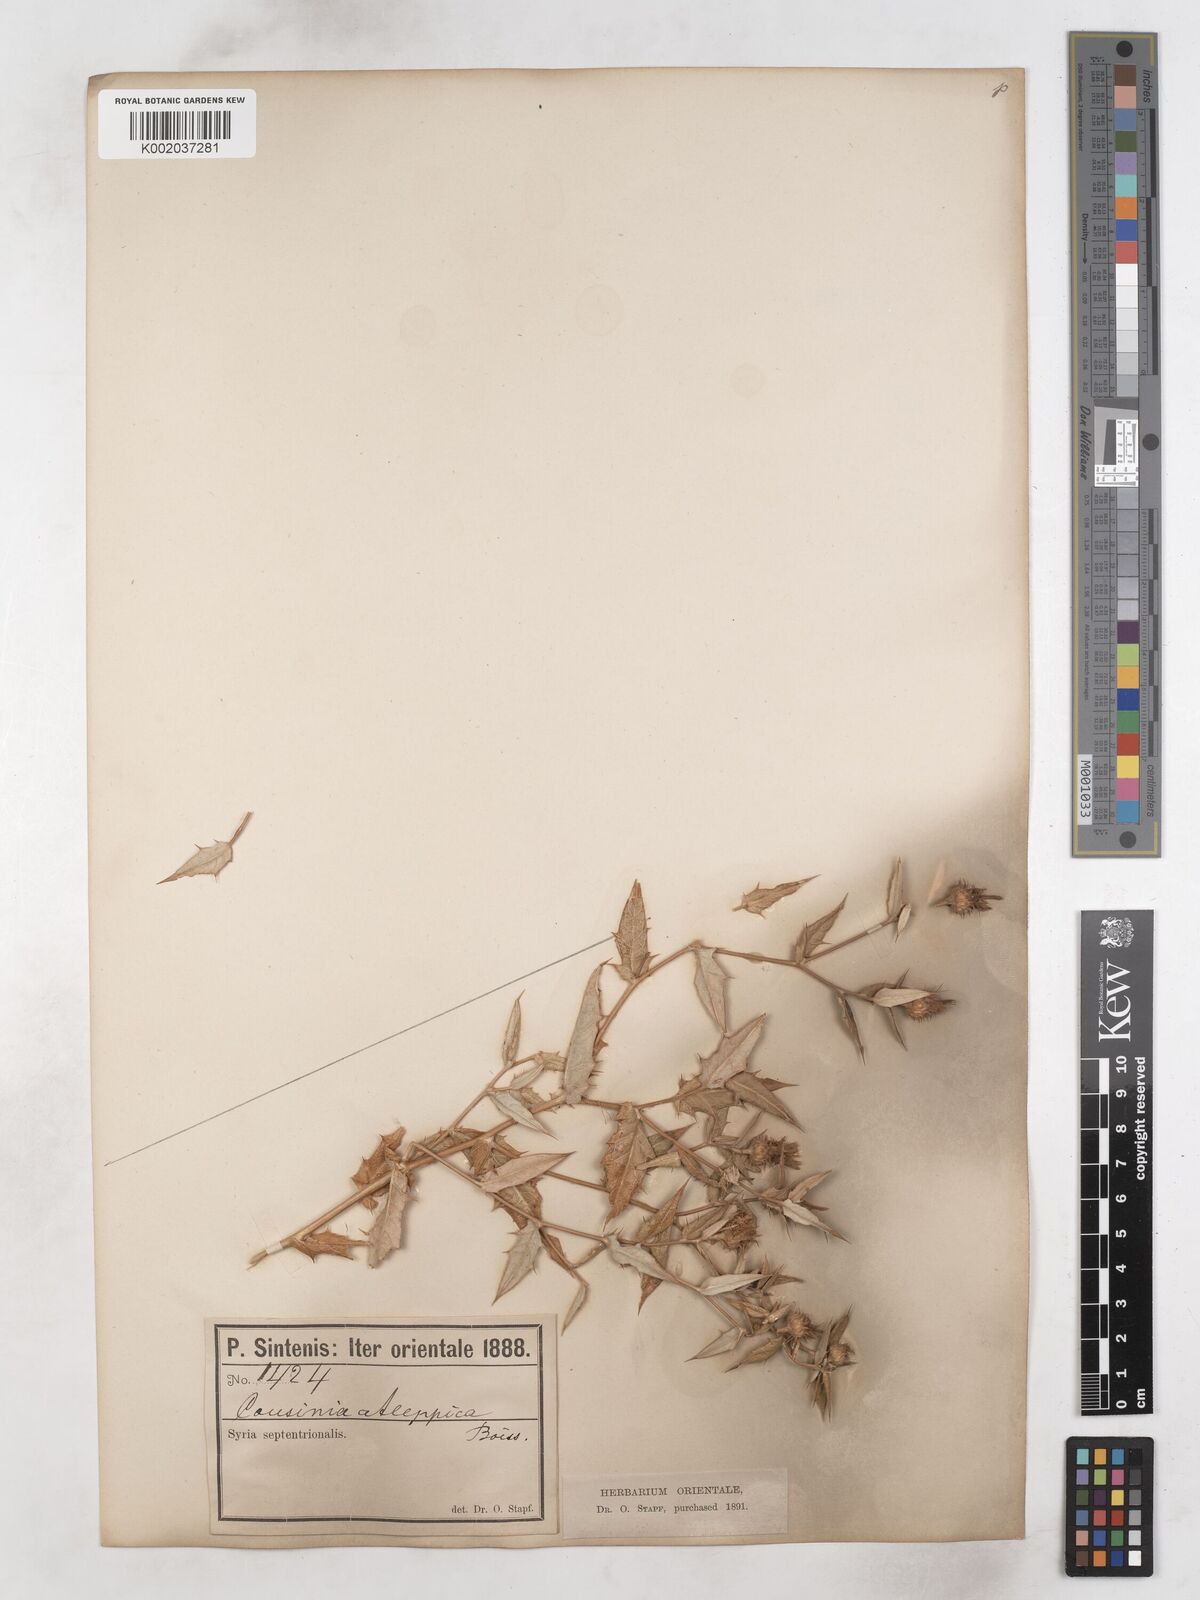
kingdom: Plantae
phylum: Tracheophyta
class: Magnoliopsida
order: Asterales
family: Asteraceae
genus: Cousinia
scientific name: Cousinia aleppica
